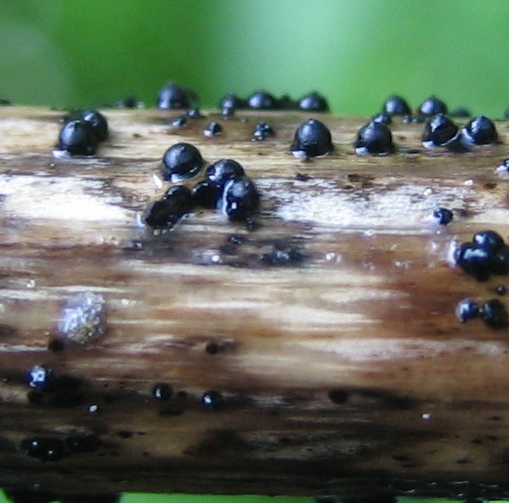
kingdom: Fungi
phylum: Ascomycota
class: Dothideomycetes
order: Pleosporales
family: Leptosphaeriaceae
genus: Leptosphaeria
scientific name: Leptosphaeria
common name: kulkegle
